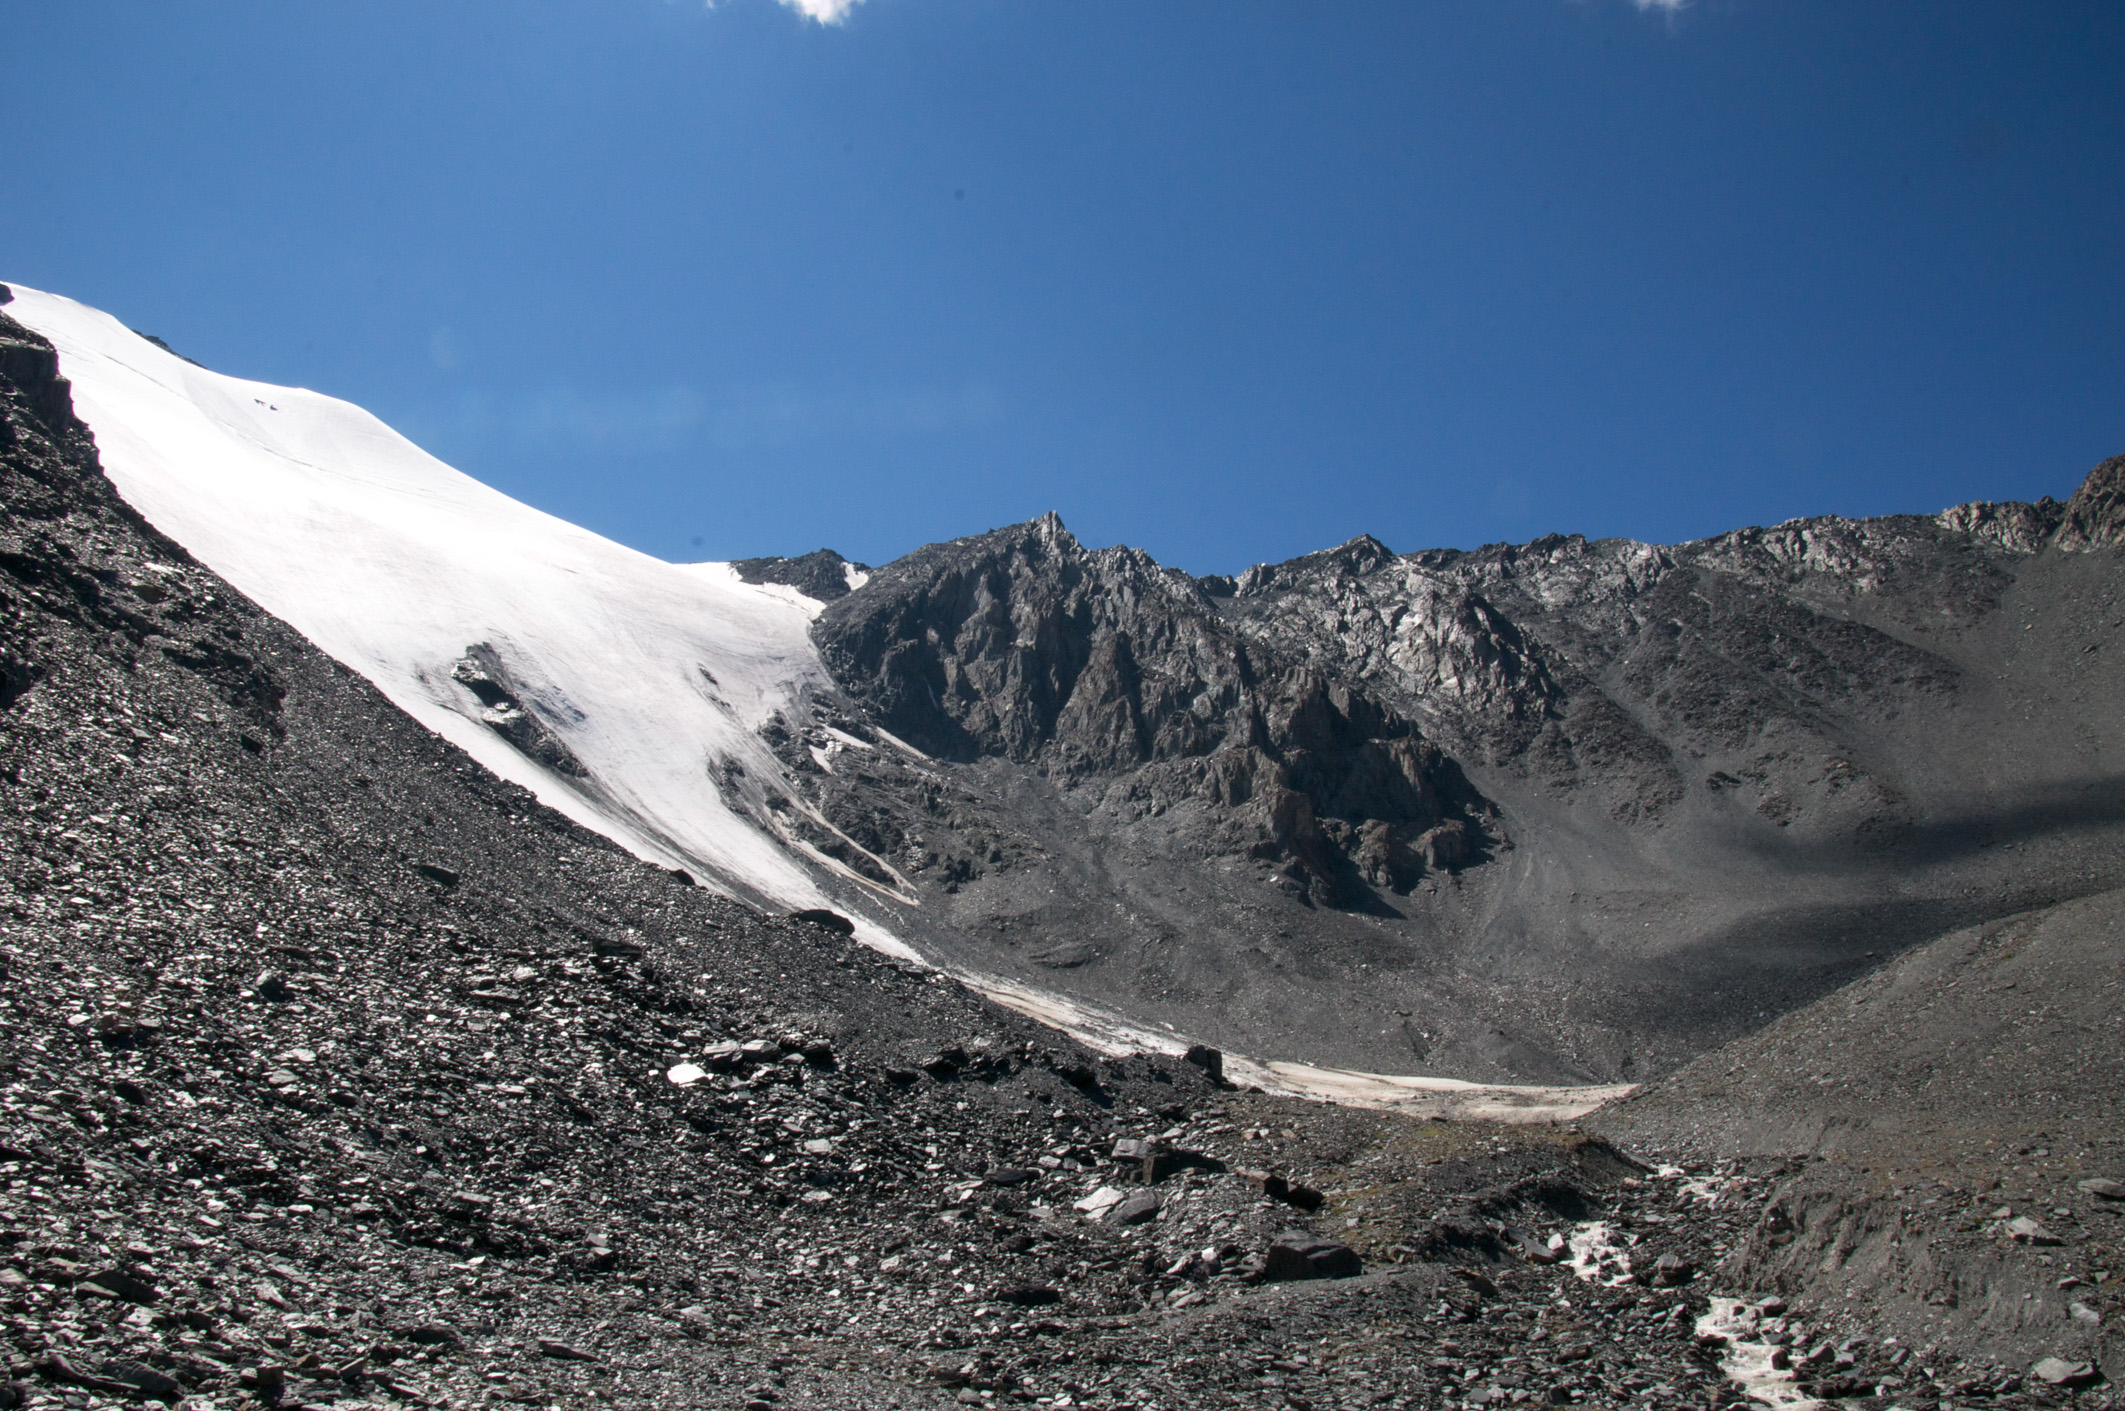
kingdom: Plantae
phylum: Tracheophyta
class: Magnoliopsida
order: Ericales
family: Primulaceae
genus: Androsace
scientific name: Androsace septentrionalis
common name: Hairy northern fairy-candelabra
